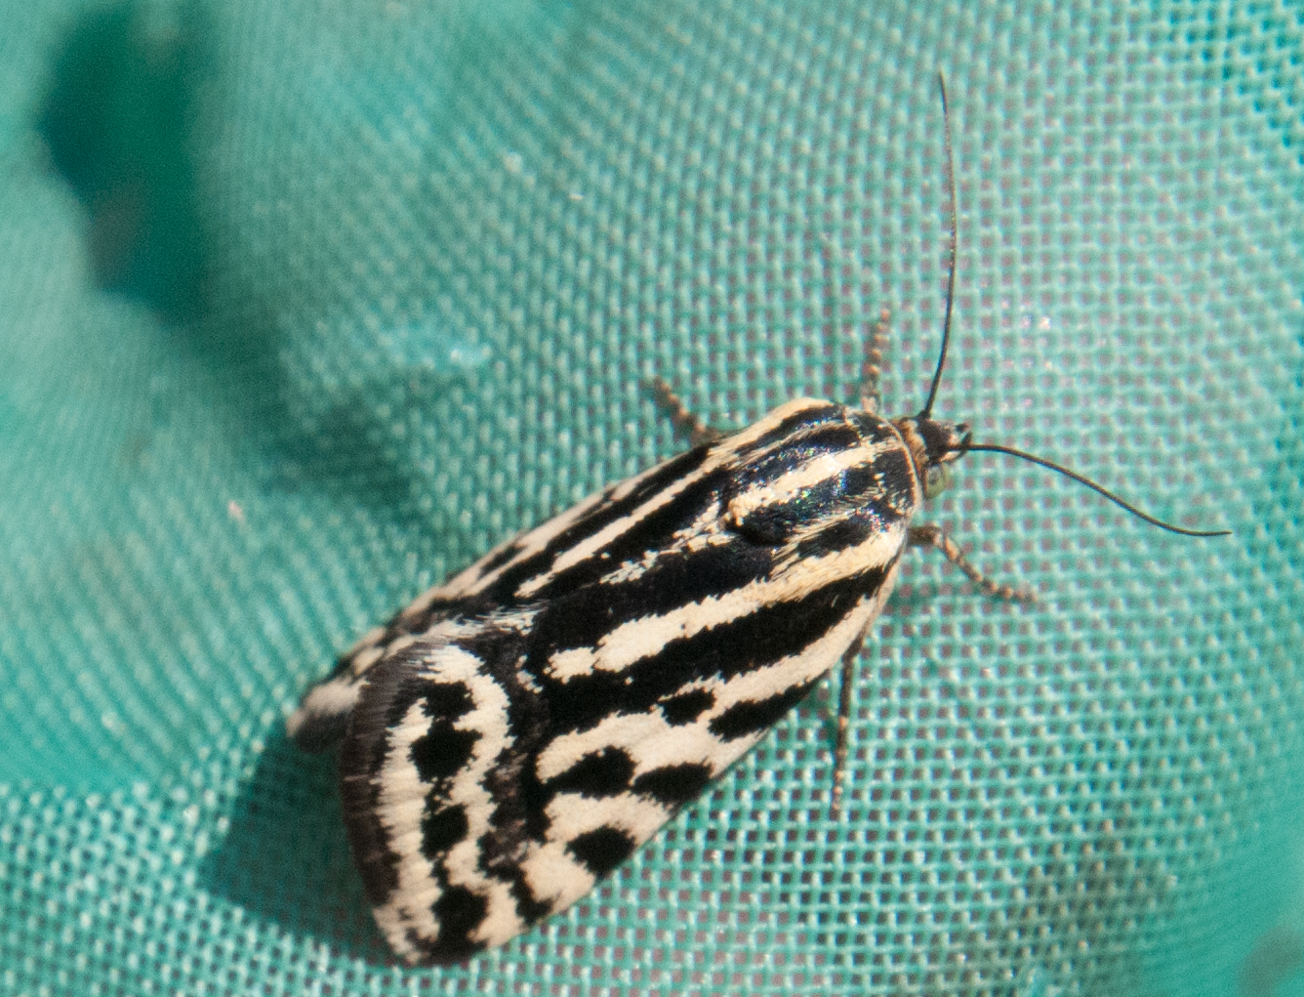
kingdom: Animalia
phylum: Arthropoda
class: Insecta
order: Lepidoptera
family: Noctuidae
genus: Acontia
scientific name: Acontia trabealis
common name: Spotted sulphur
